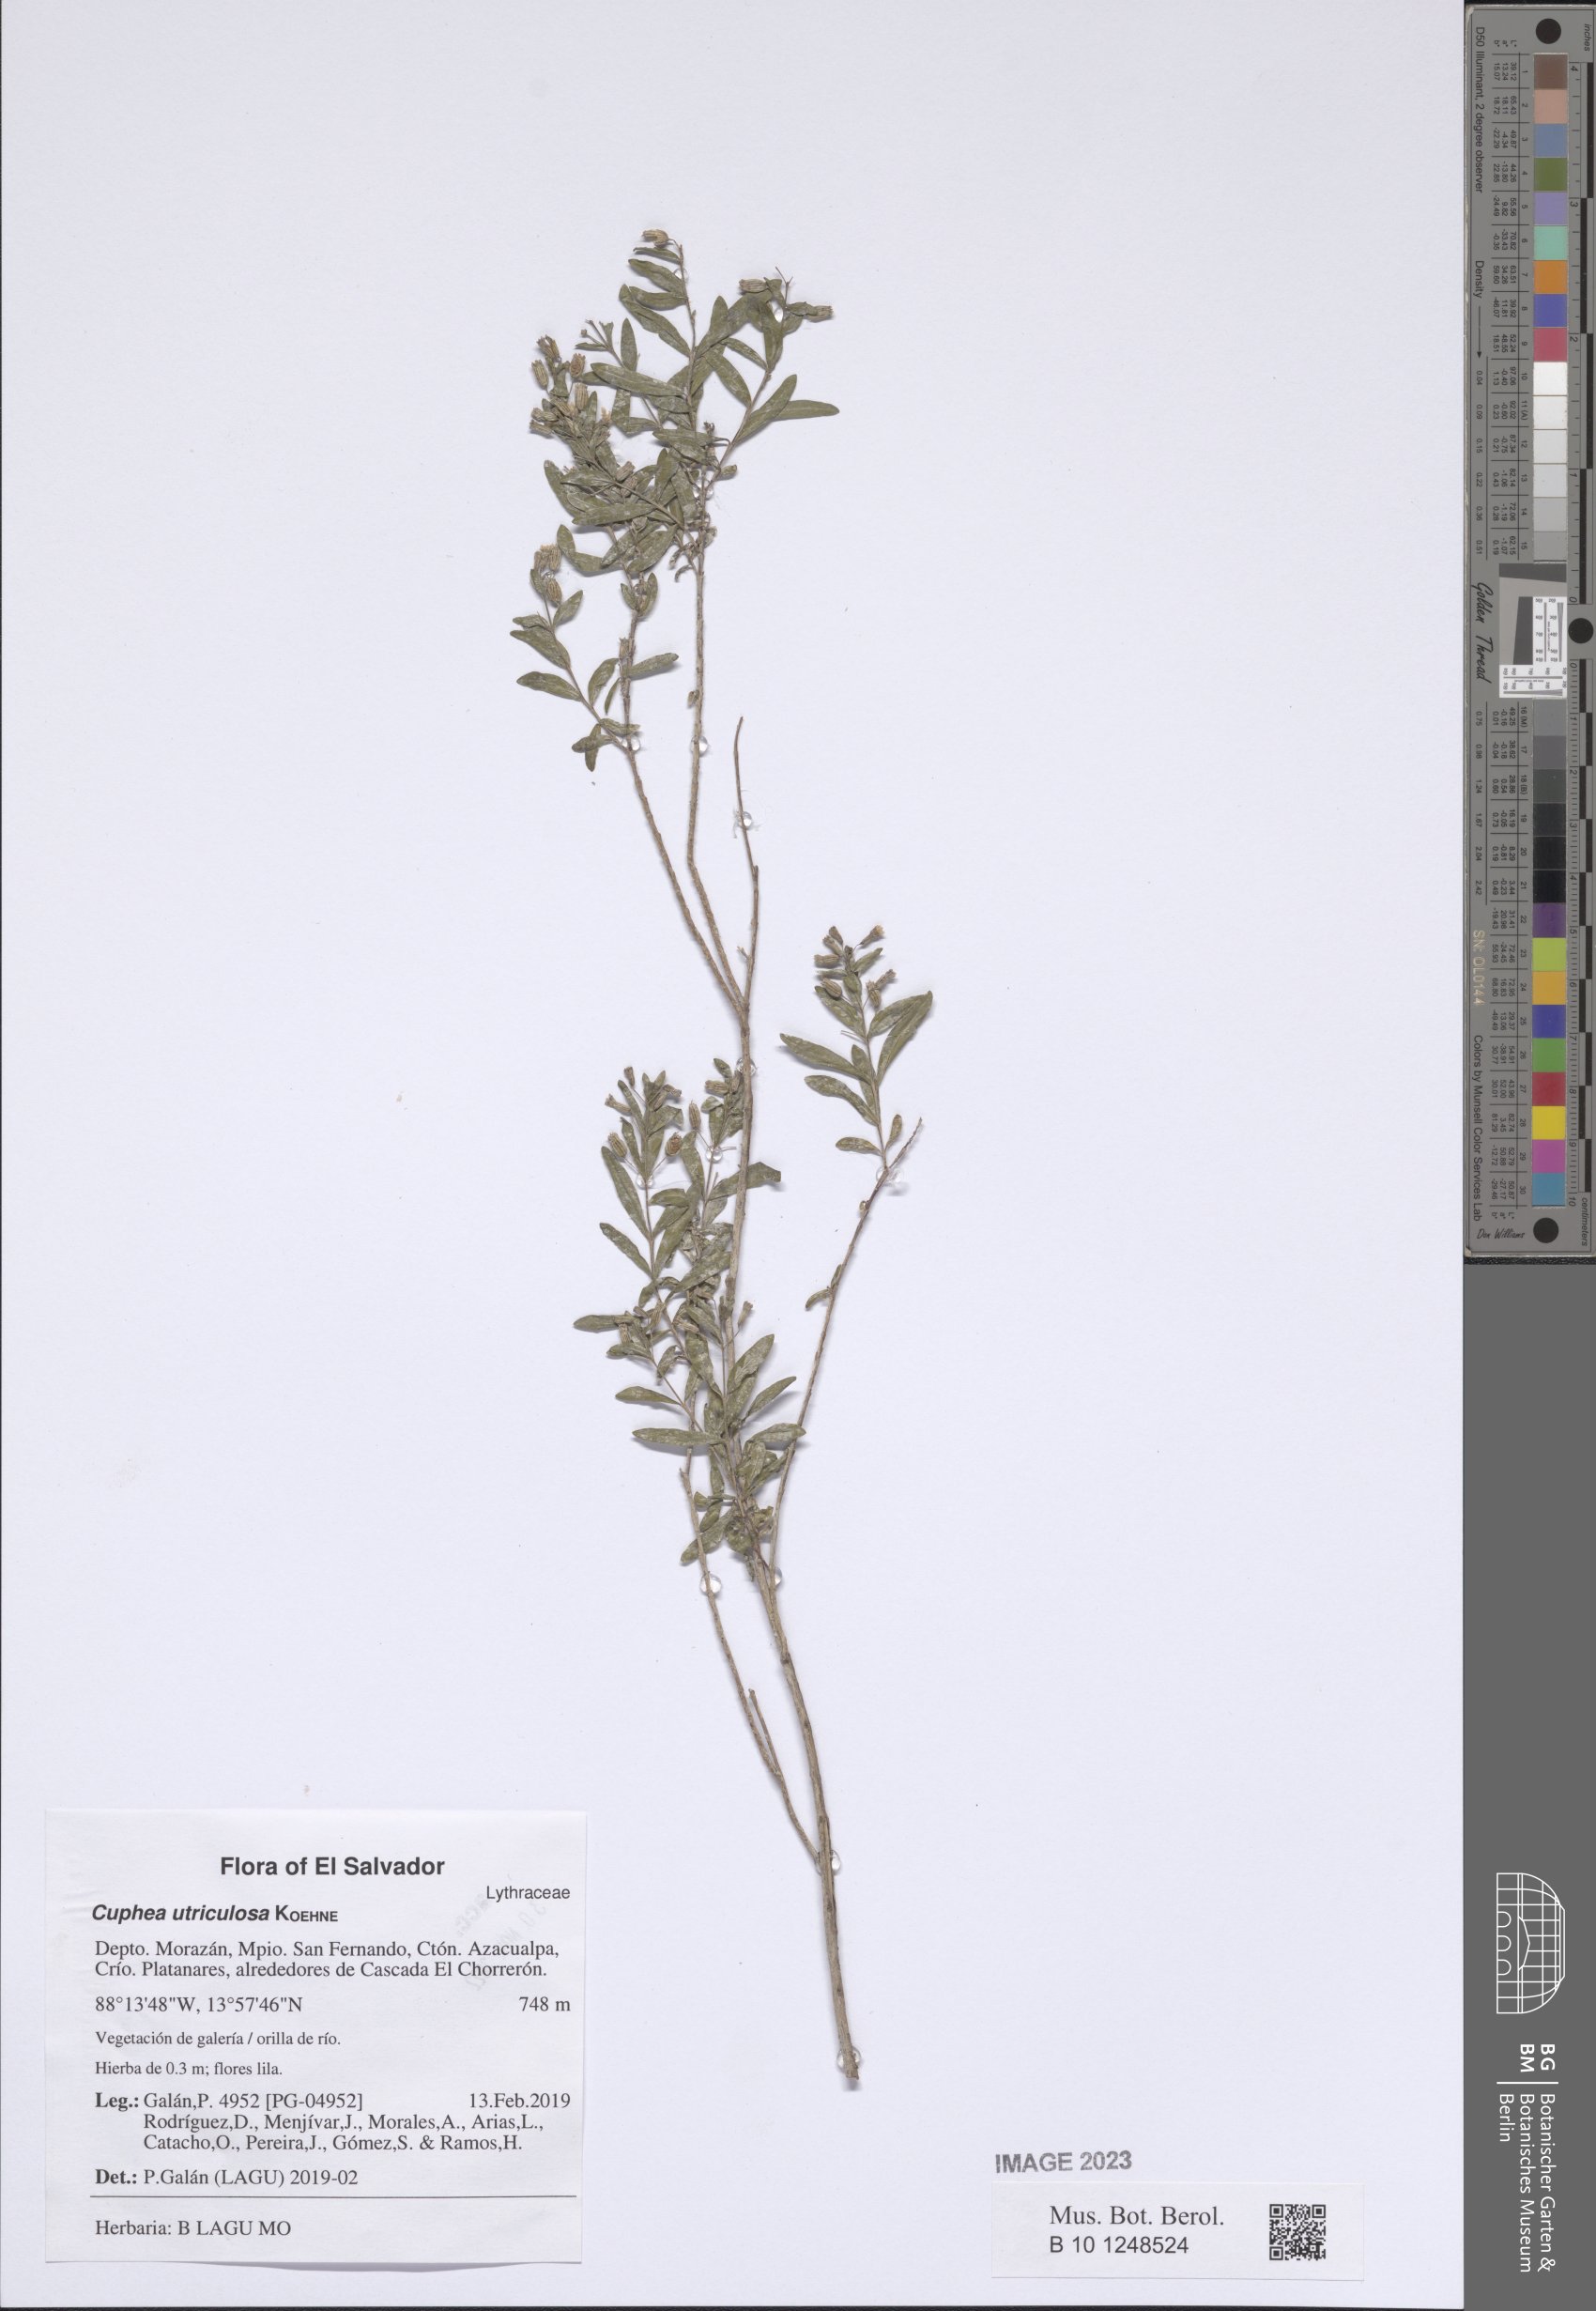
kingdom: Plantae
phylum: Tracheophyta
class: Magnoliopsida
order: Myrtales
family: Lythraceae
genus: Cuphea
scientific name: Cuphea utriculosa
